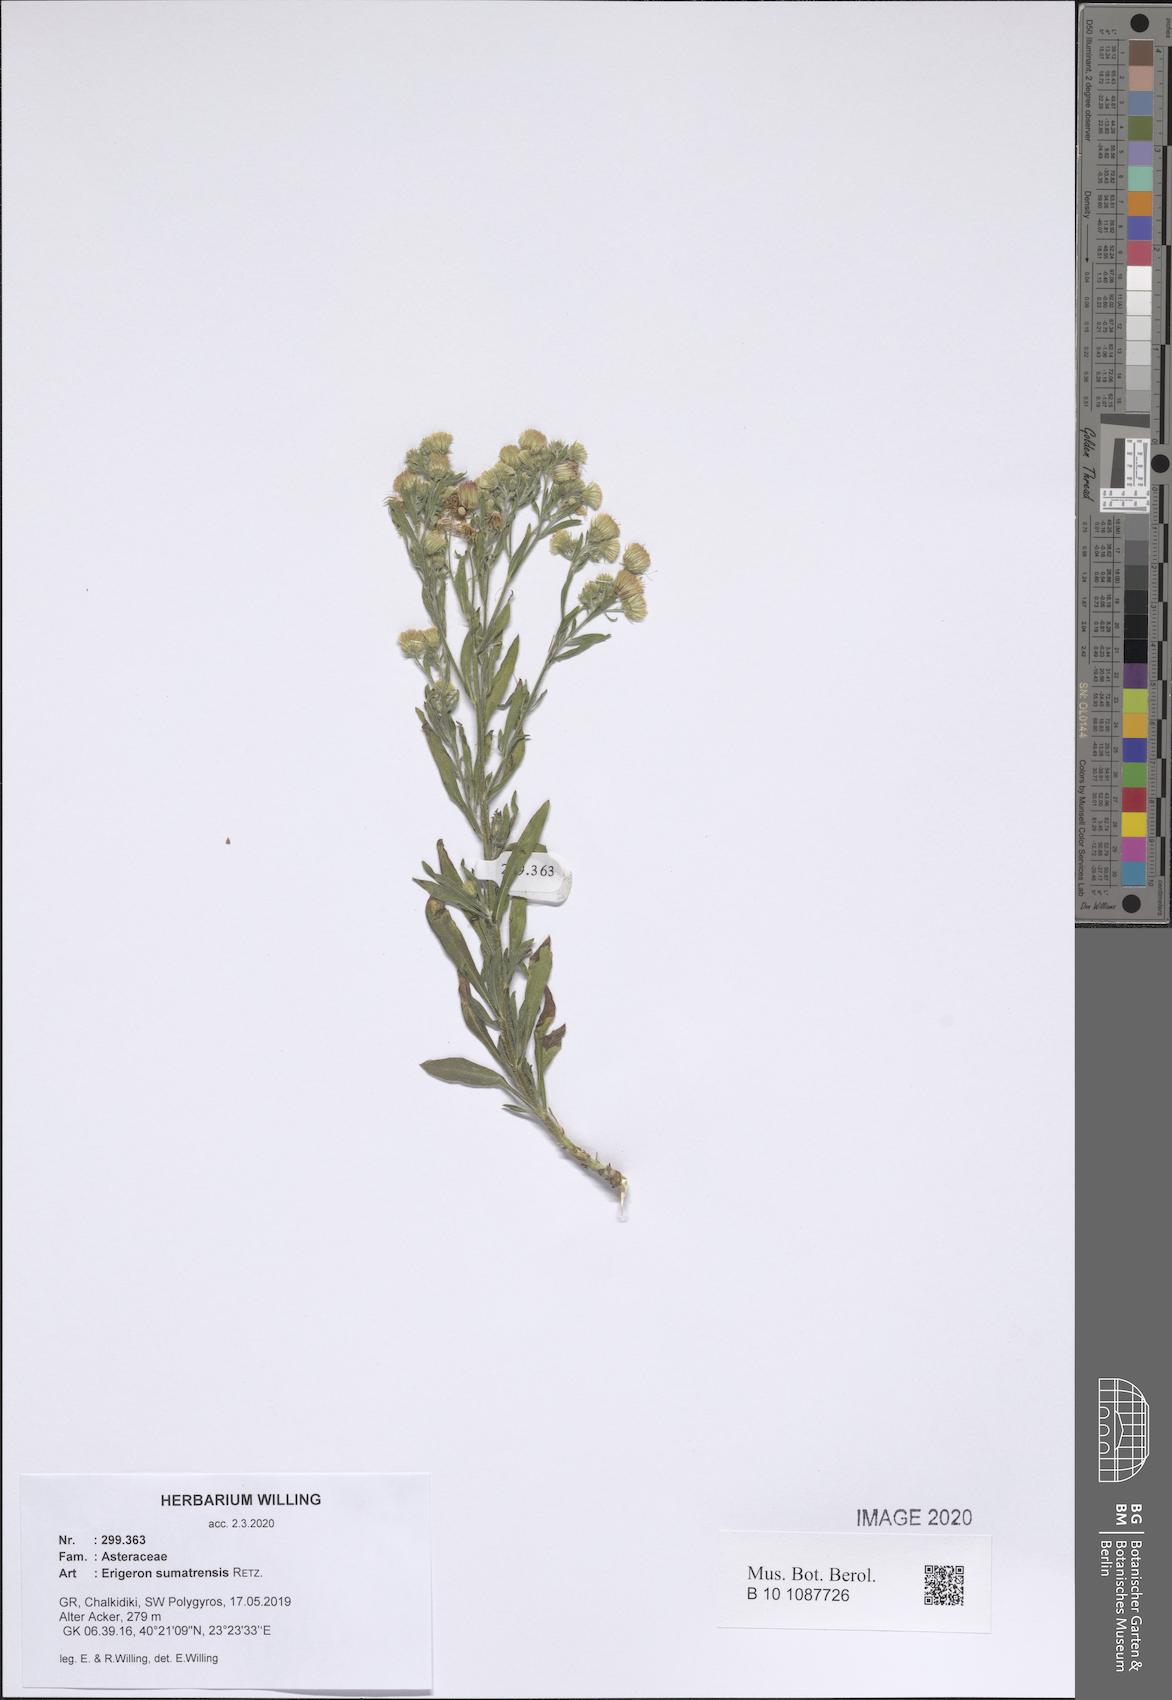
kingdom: Plantae
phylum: Tracheophyta
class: Magnoliopsida
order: Asterales
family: Asteraceae
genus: Erigeron
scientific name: Erigeron sumatrensis
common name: Daisy
